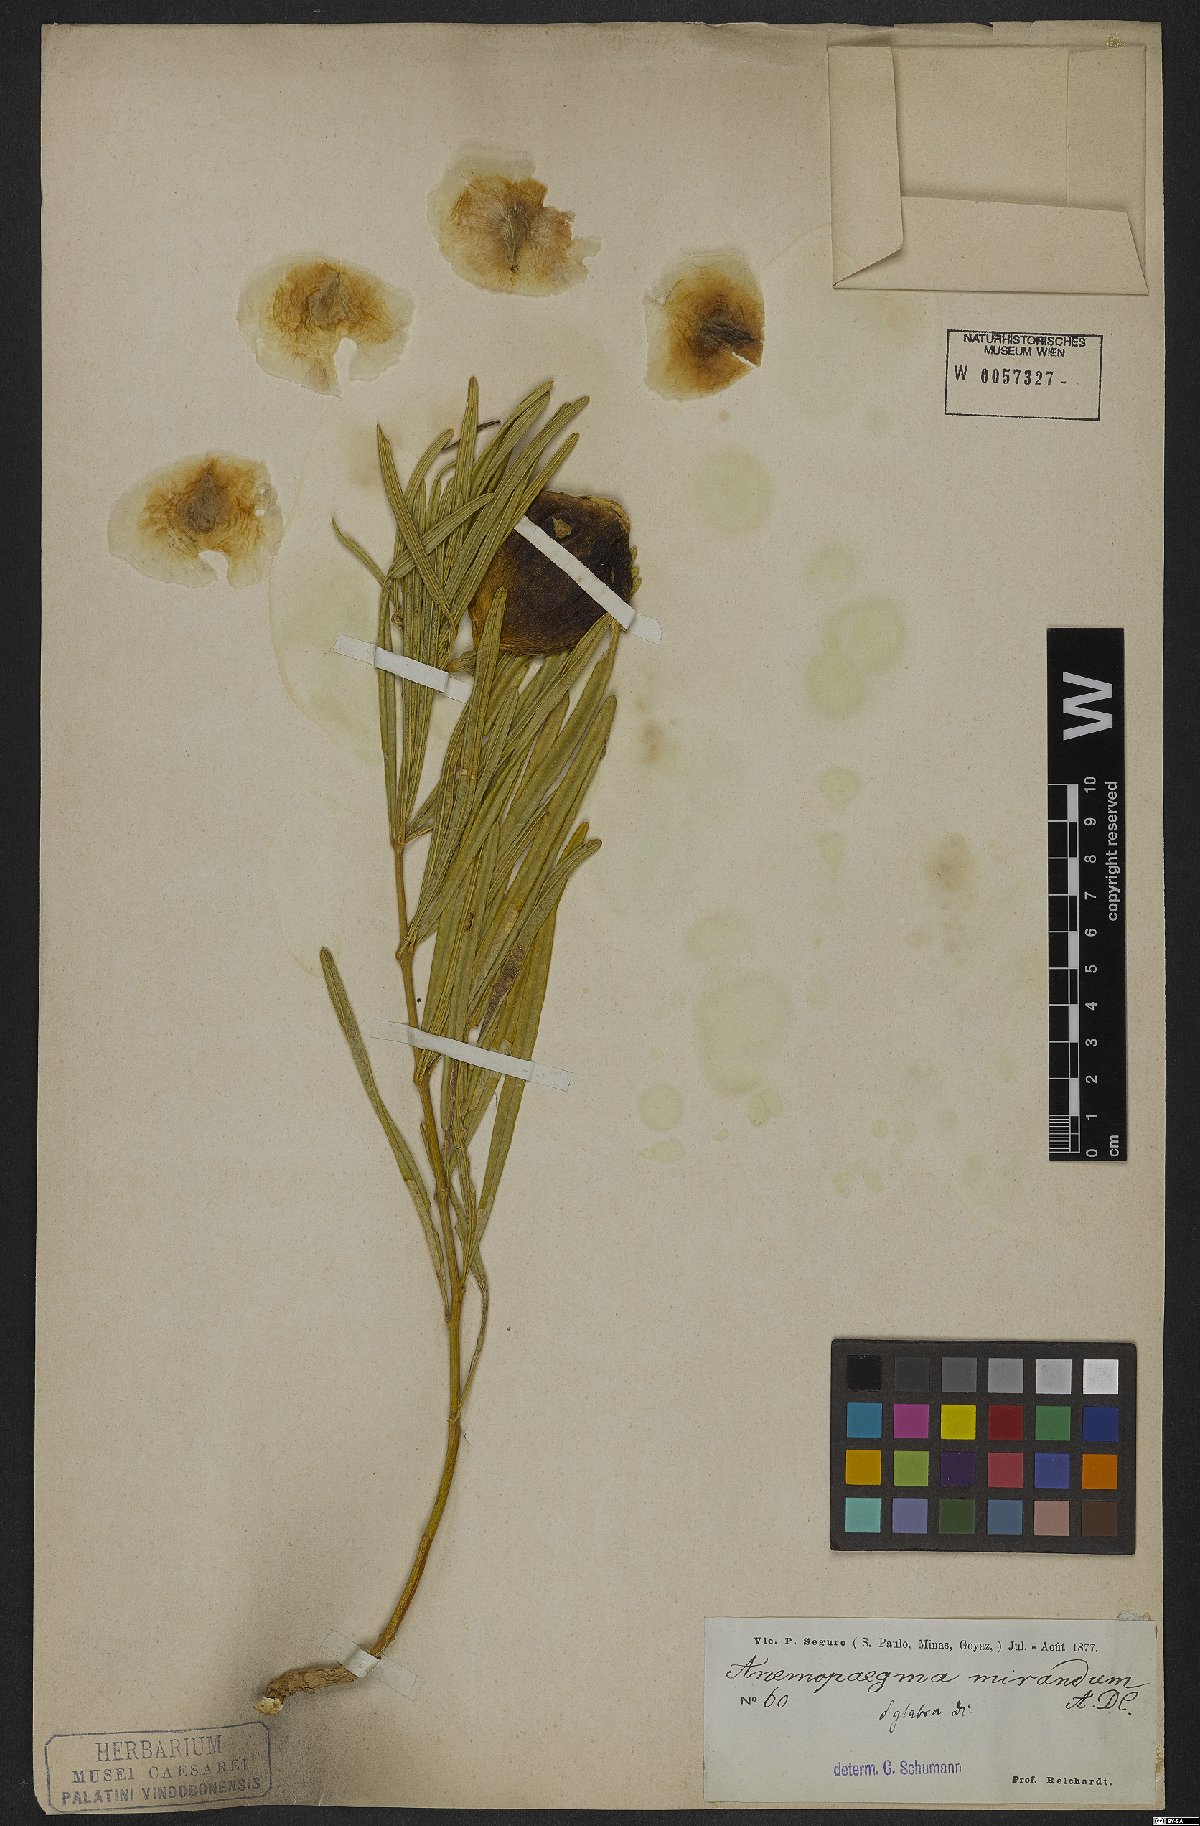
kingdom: Plantae
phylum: Tracheophyta
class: Magnoliopsida
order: Lamiales
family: Bignoniaceae
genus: Anemopaegma
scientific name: Anemopaegma arvense
